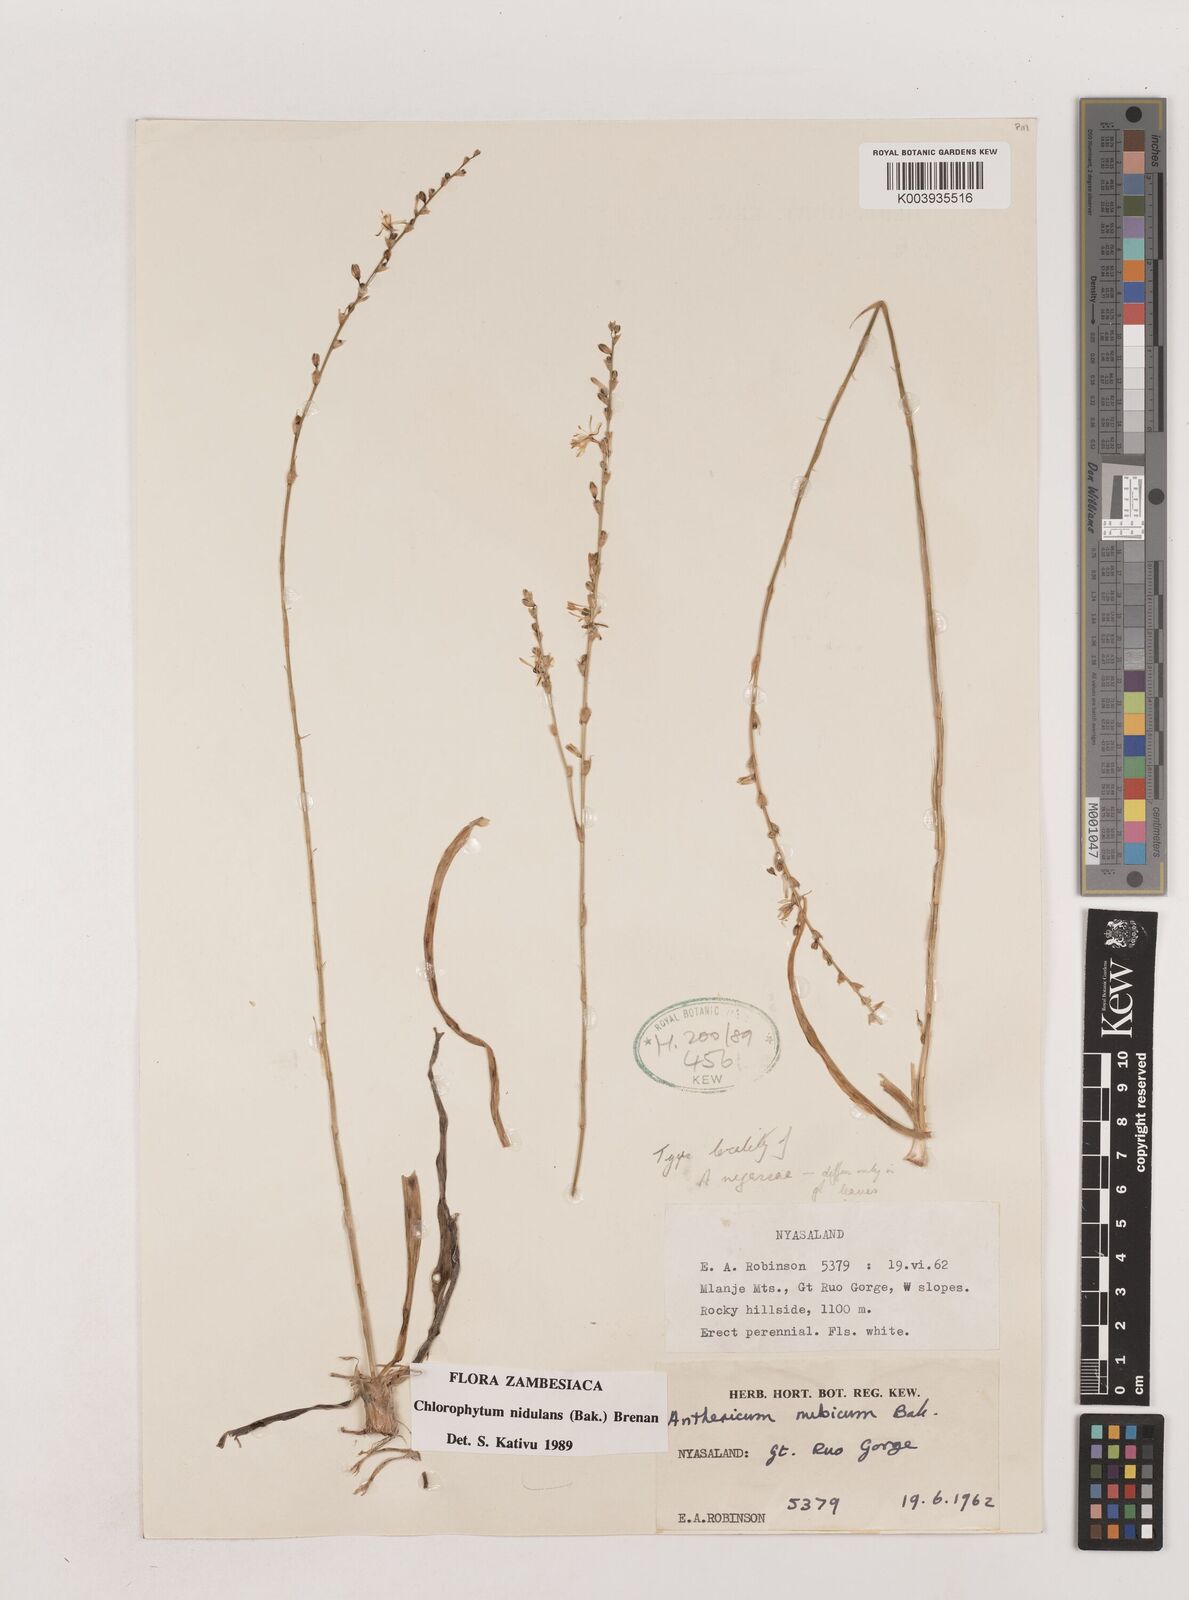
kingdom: Plantae
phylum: Tracheophyta
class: Liliopsida
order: Asparagales
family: Asparagaceae
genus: Chlorophytum
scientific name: Chlorophytum nidulans
